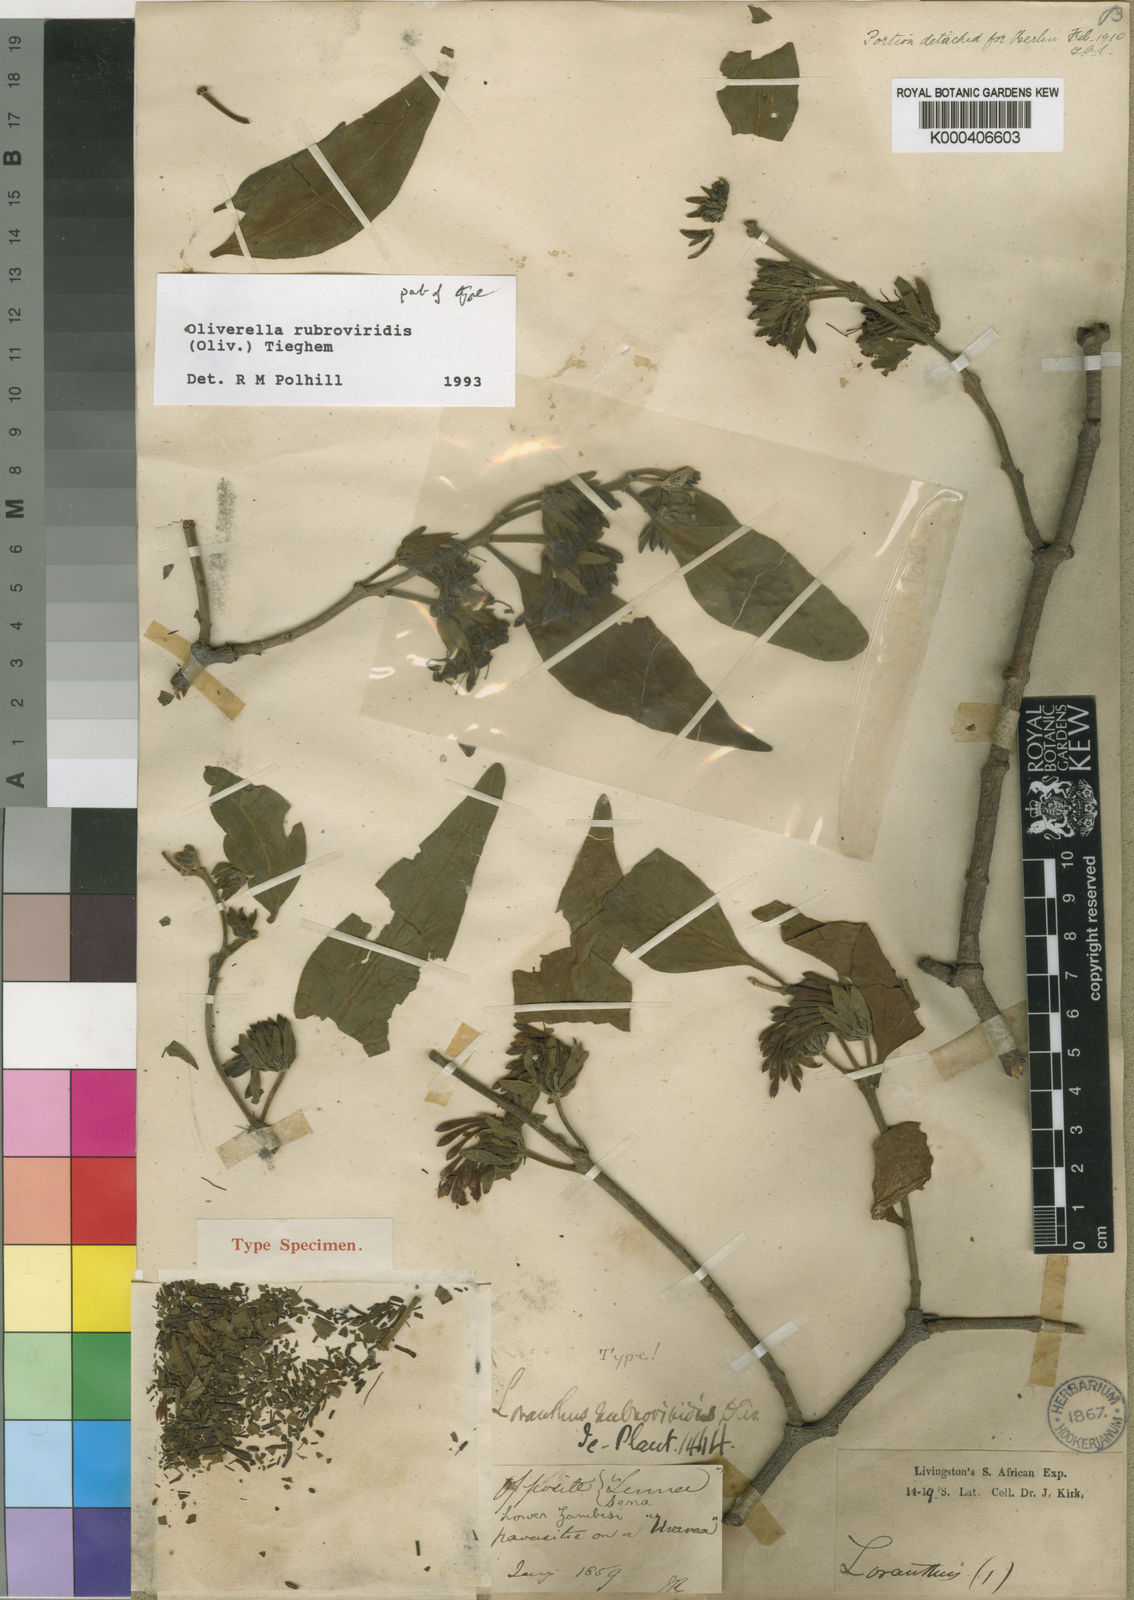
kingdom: Plantae
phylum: Tracheophyta
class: Magnoliopsida
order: Santalales
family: Loranthaceae
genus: Oliverella
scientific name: Oliverella rubroviridis
